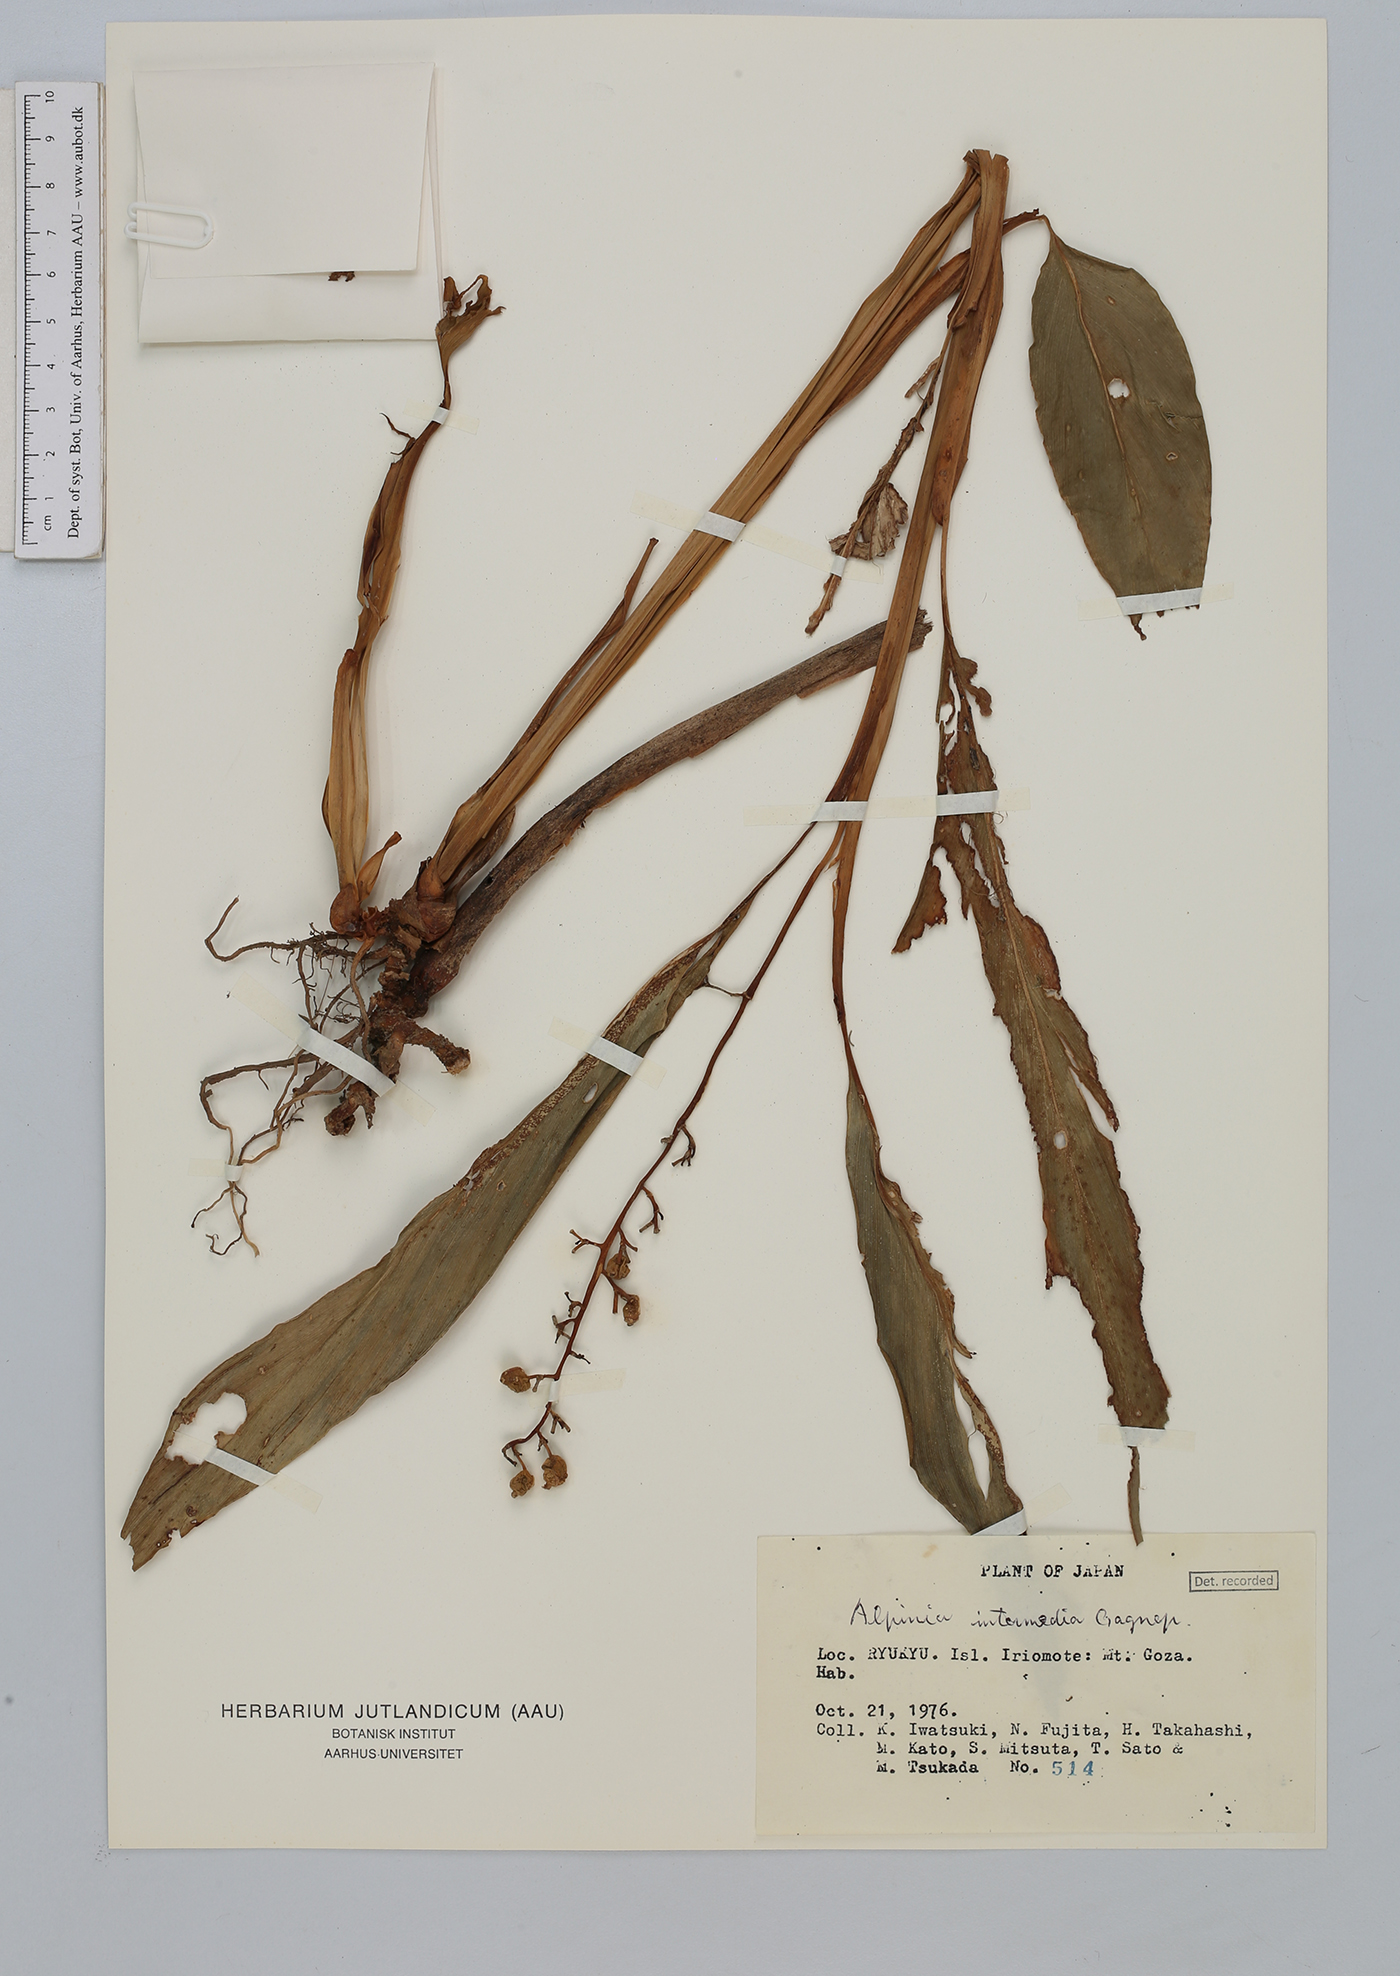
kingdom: Plantae
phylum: Tracheophyta
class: Liliopsida
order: Zingiberales
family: Zingiberaceae
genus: Alpinia
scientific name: Alpinia intermedia
